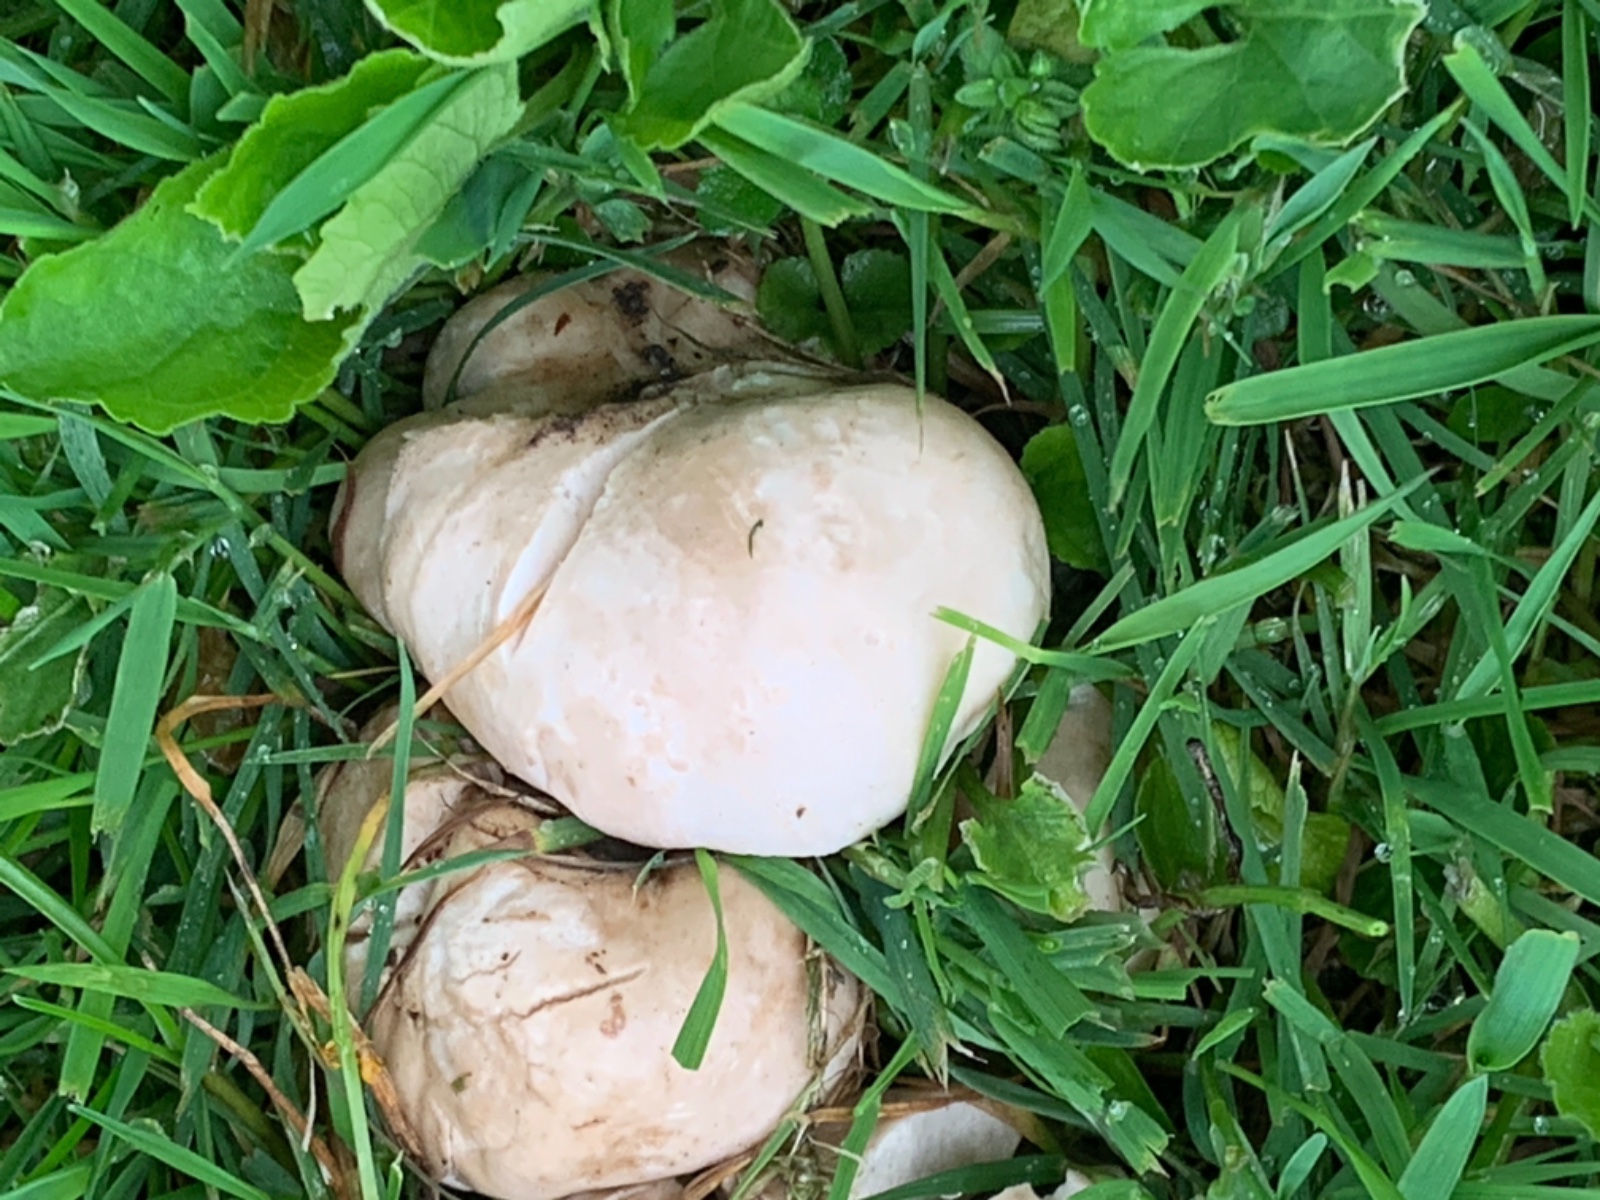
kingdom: Fungi
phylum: Basidiomycota
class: Agaricomycetes
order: Agaricales
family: Lyophyllaceae
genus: Calocybe
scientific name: Calocybe gambosa
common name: vårmusseron
